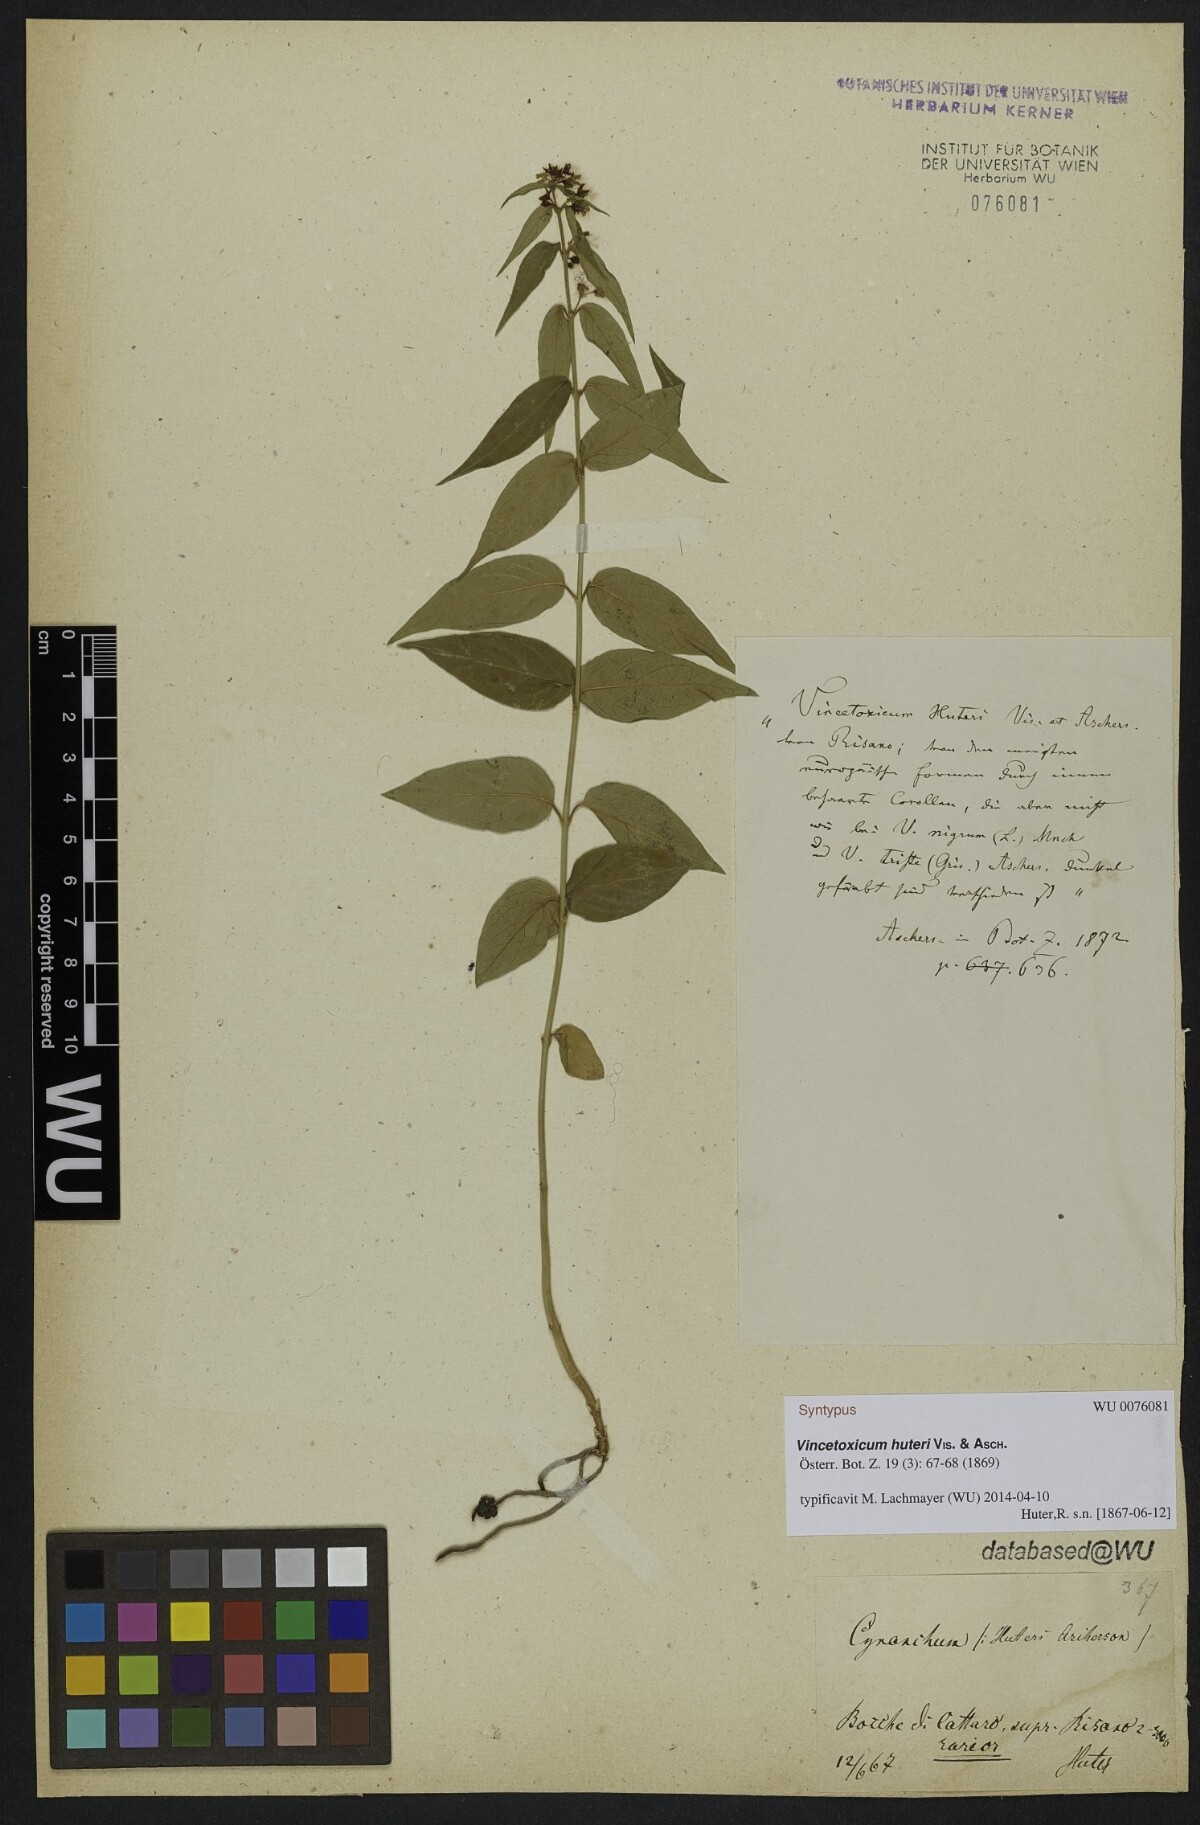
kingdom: Plantae
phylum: Tracheophyta
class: Magnoliopsida
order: Gentianales
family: Apocynaceae
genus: Vincetoxicum
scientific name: Vincetoxicum huteri
